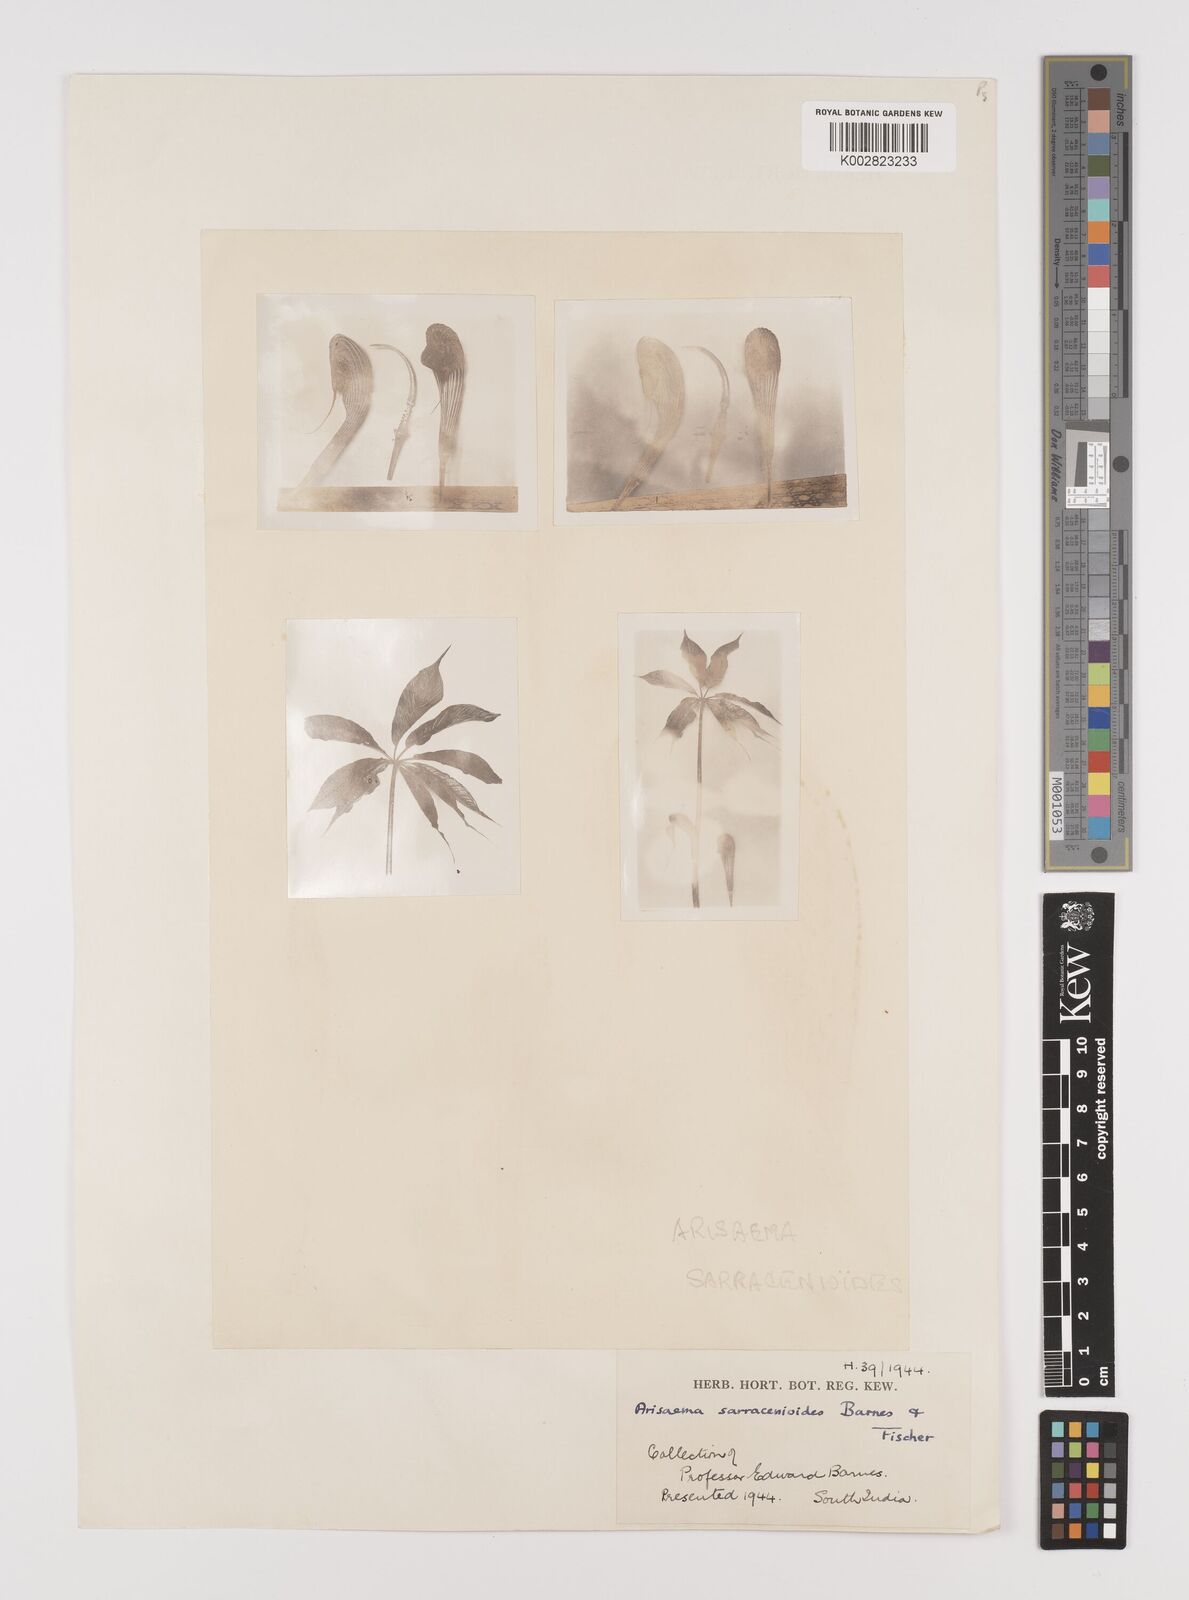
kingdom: Plantae
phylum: Tracheophyta
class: Liliopsida
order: Alismatales
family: Araceae
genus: Arisaema
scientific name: Arisaema sarracenioides
